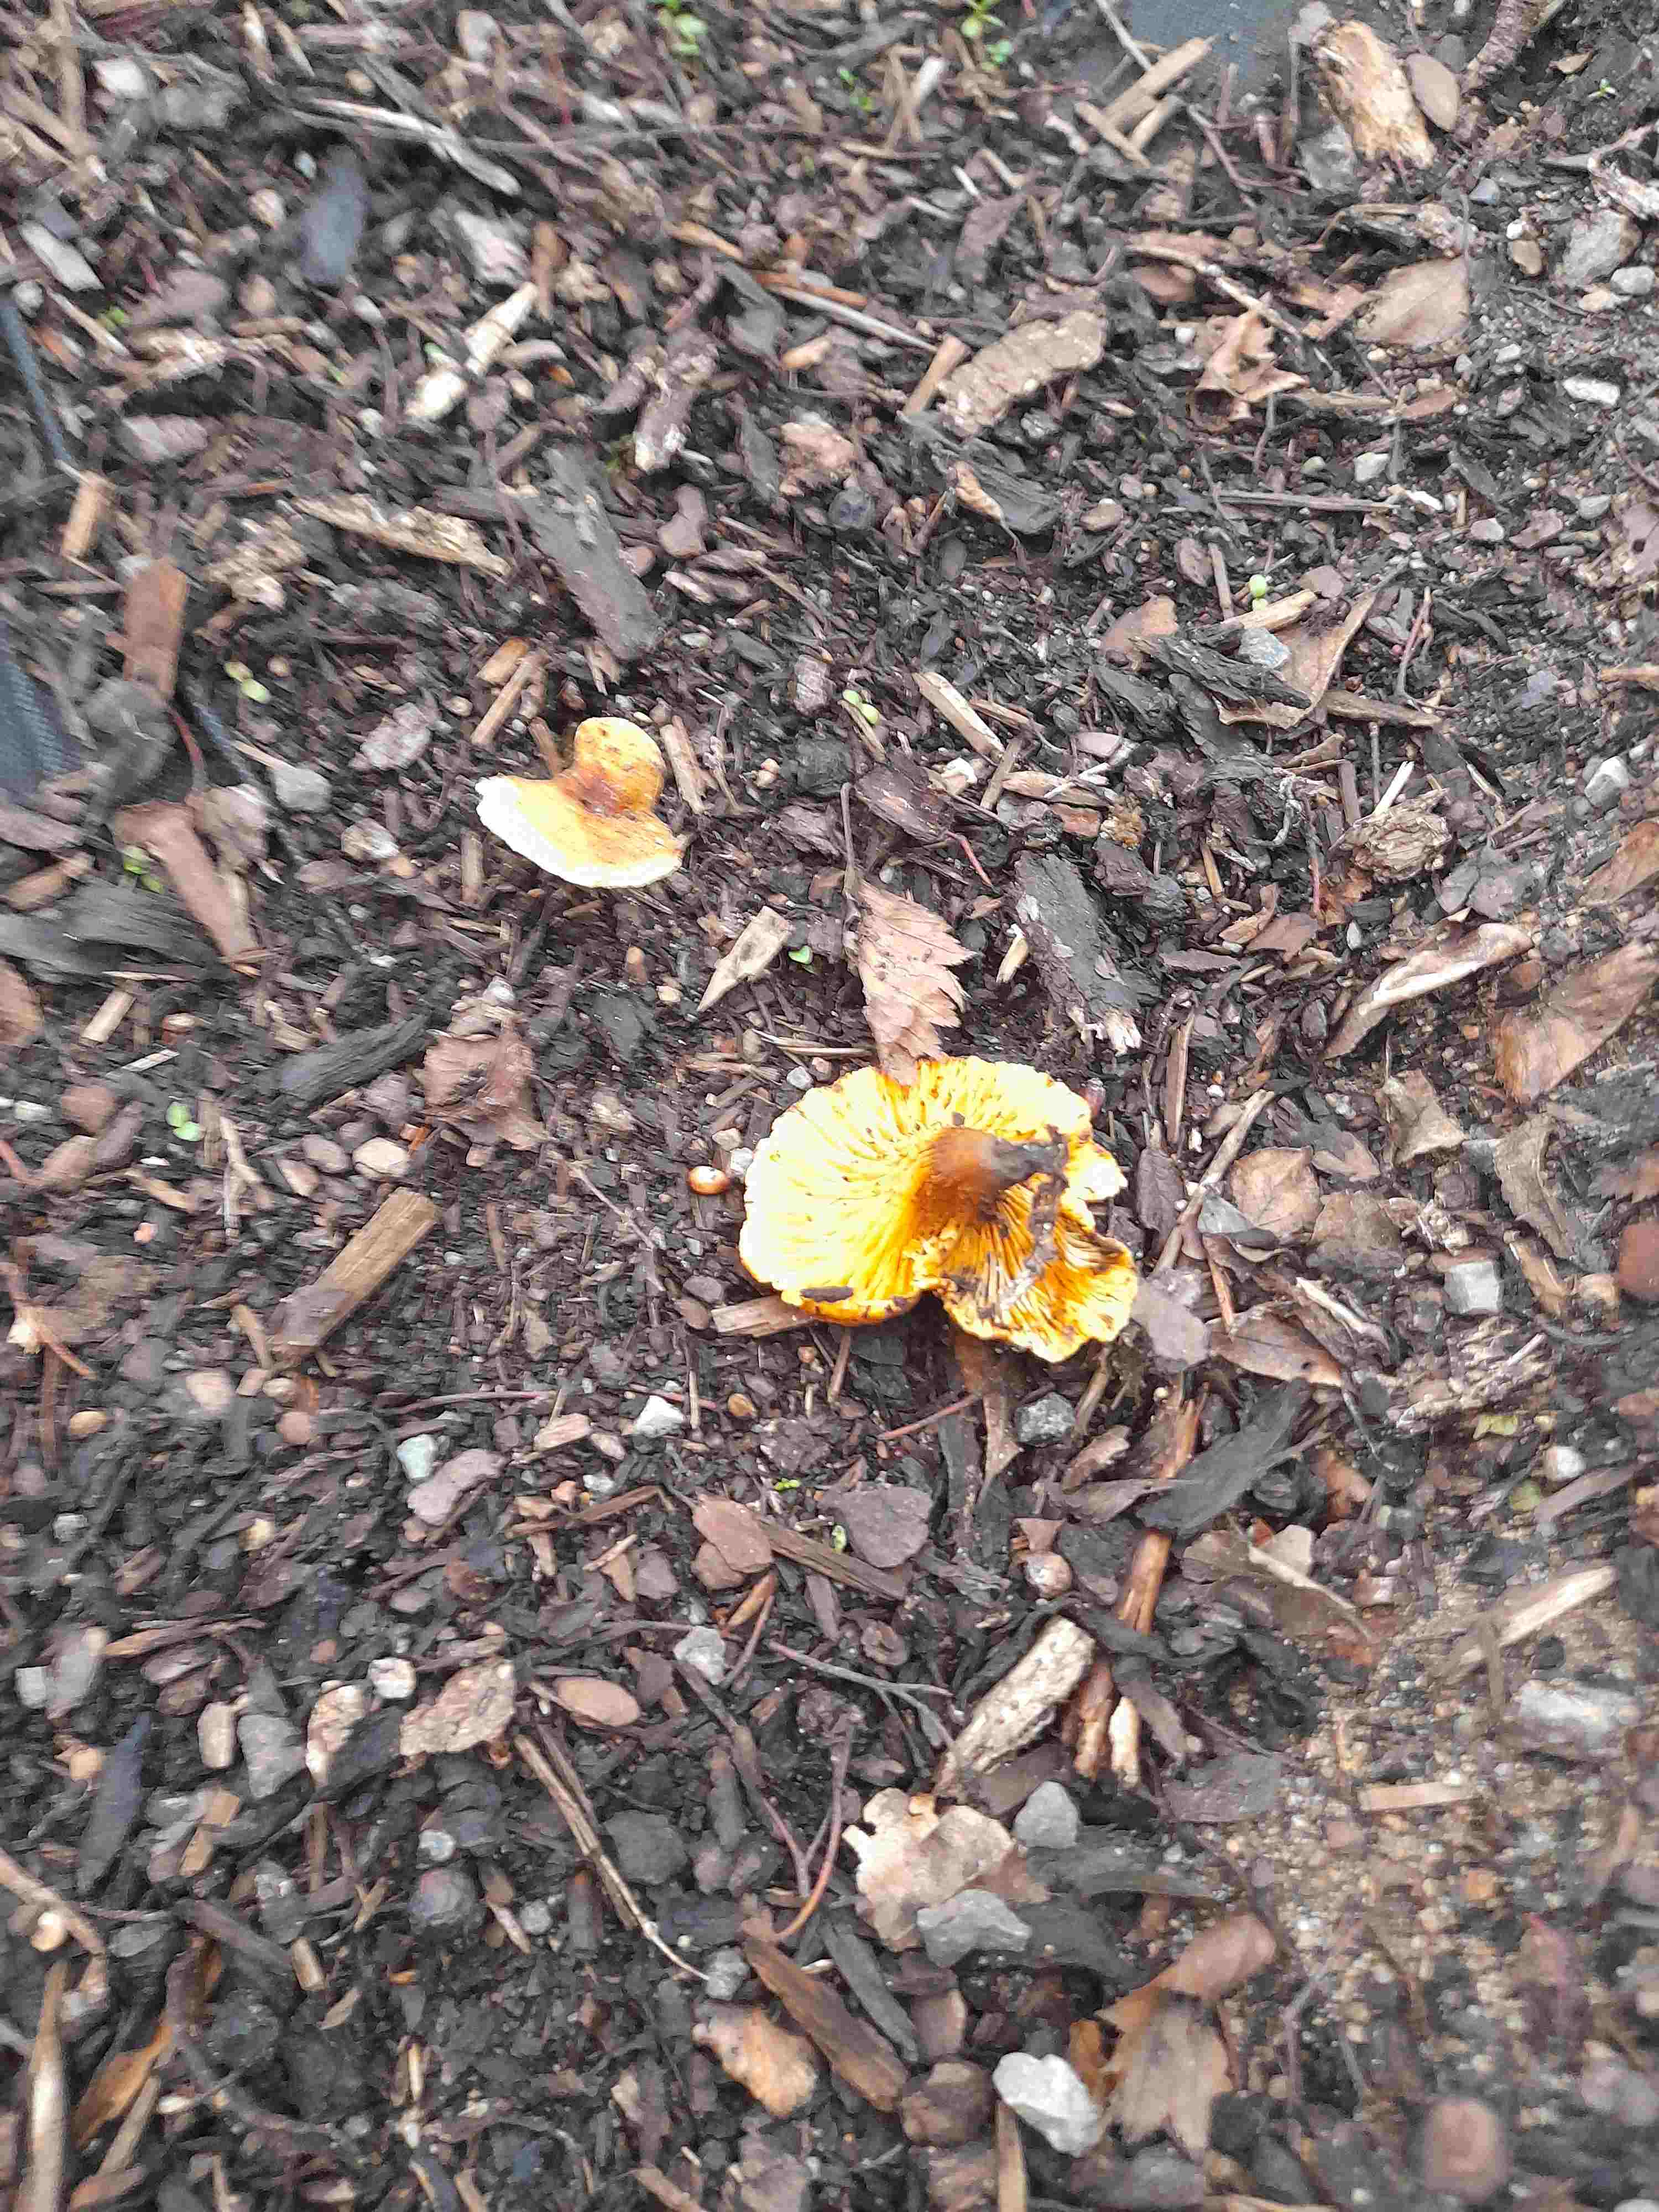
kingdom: Fungi
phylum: Basidiomycota
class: Agaricomycetes
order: Boletales
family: Hygrophoropsidaceae
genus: Hygrophoropsis
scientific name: Hygrophoropsis aurantiaca
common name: almindelig orangekantarel
